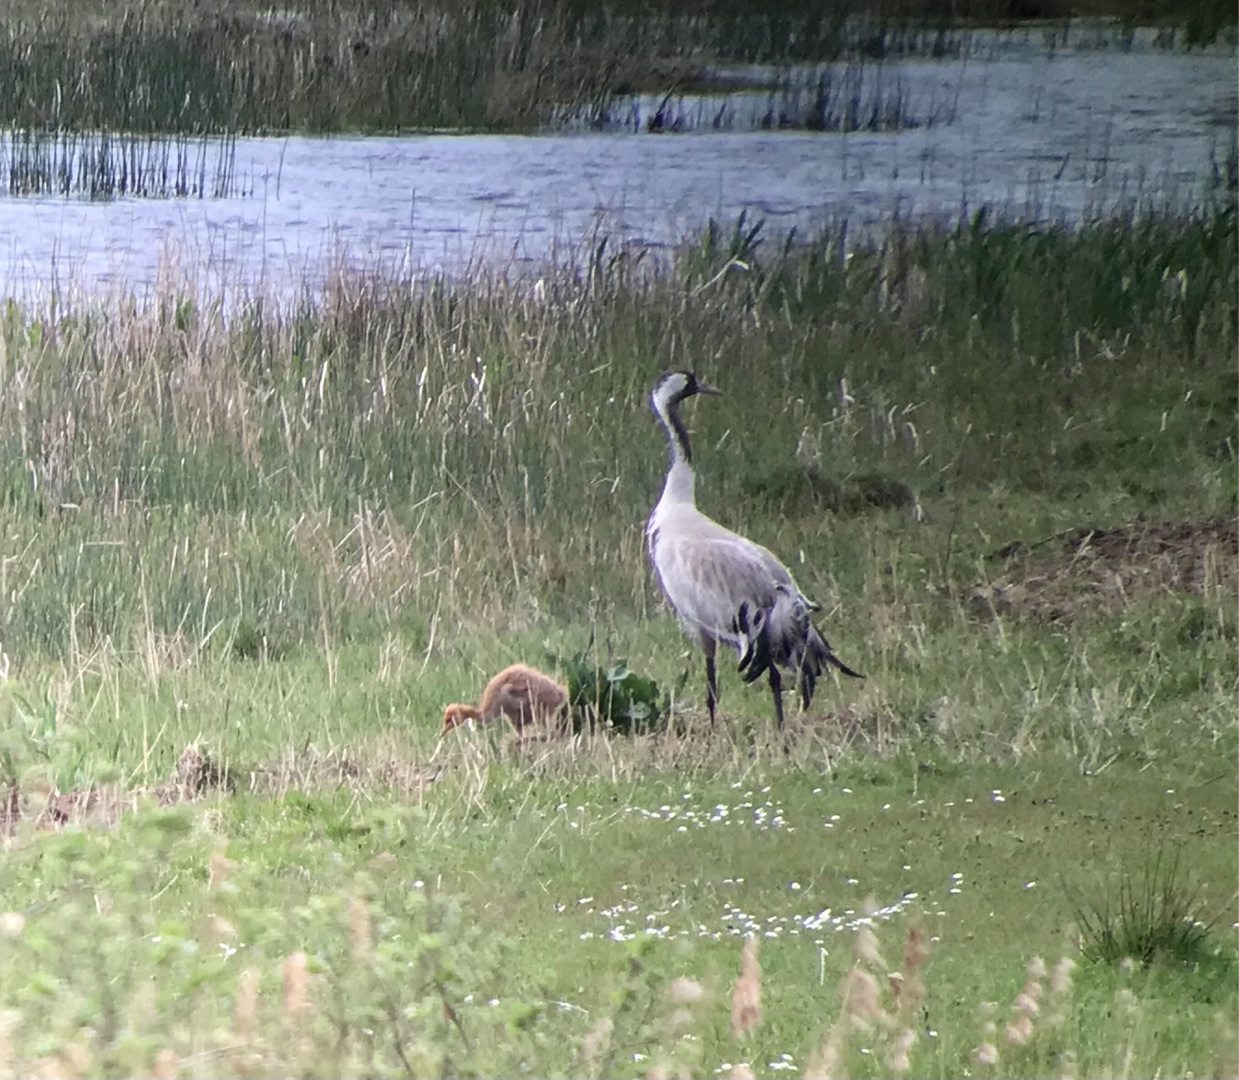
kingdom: Animalia
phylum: Chordata
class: Aves
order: Gruiformes
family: Gruidae
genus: Grus
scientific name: Grus grus
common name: Trane
